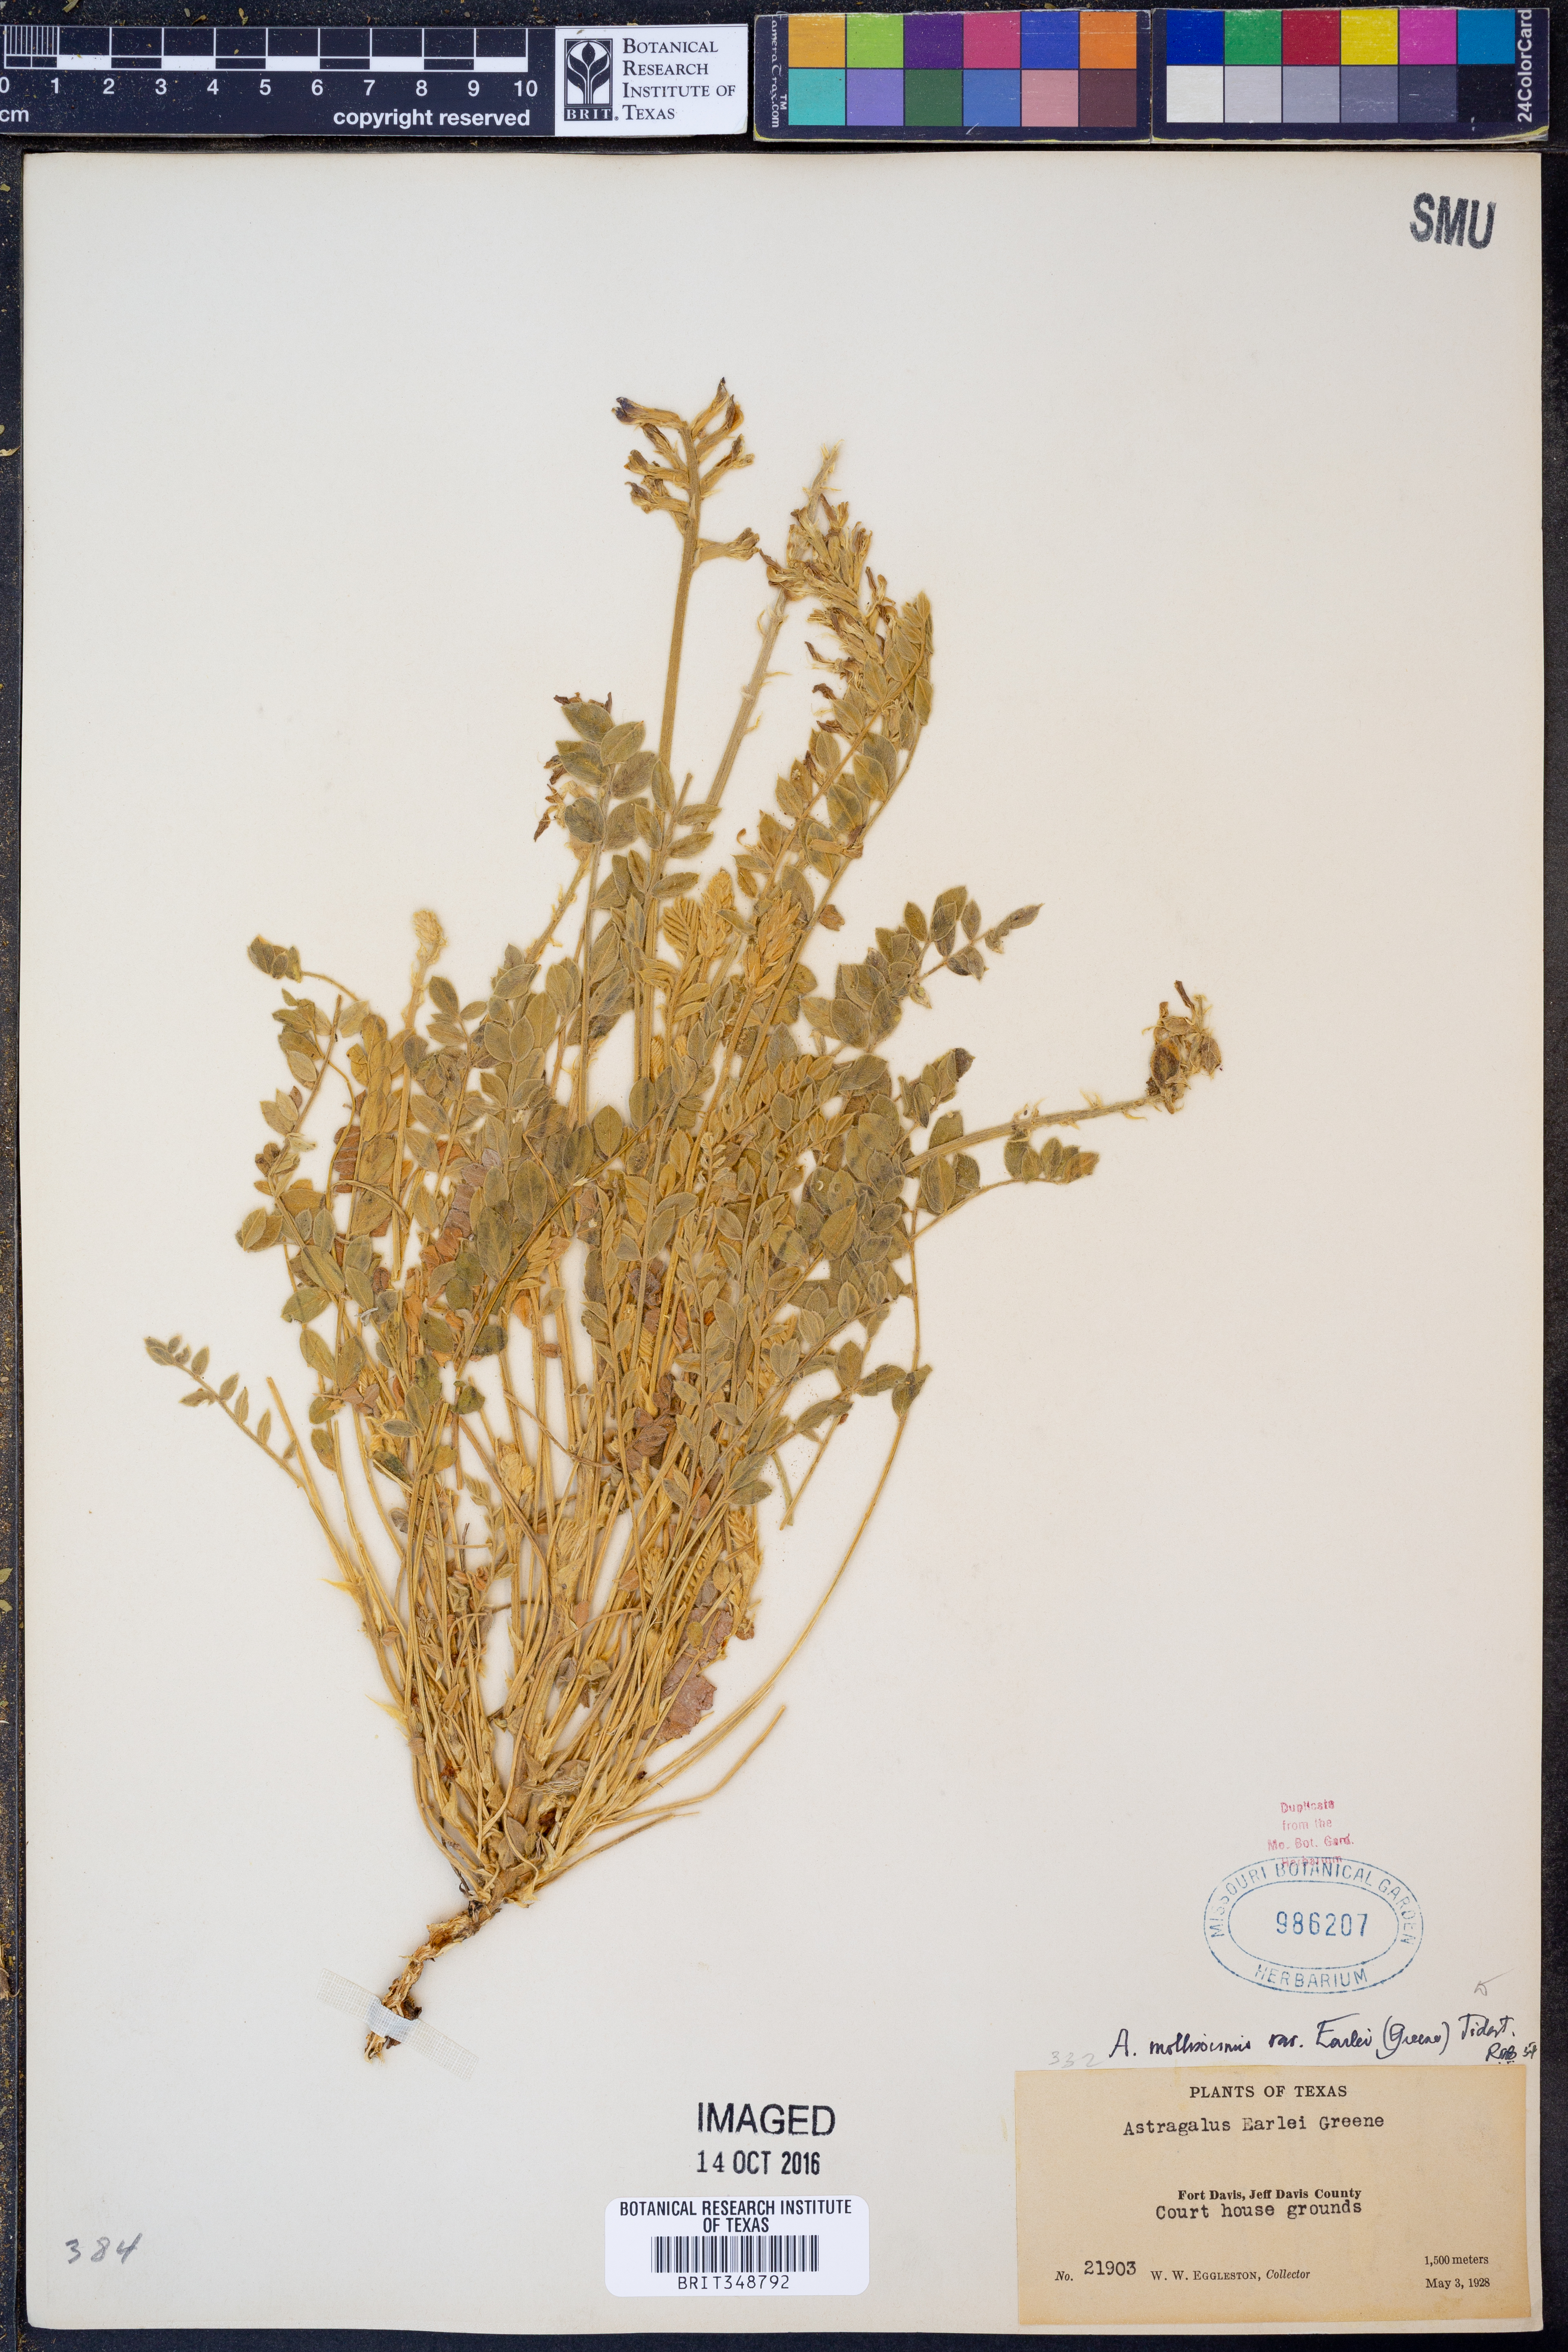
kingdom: Plantae
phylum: Tracheophyta
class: Magnoliopsida
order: Fabales
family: Fabaceae
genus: Astragalus
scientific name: Astragalus mollissimus
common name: Woolly locoweed
